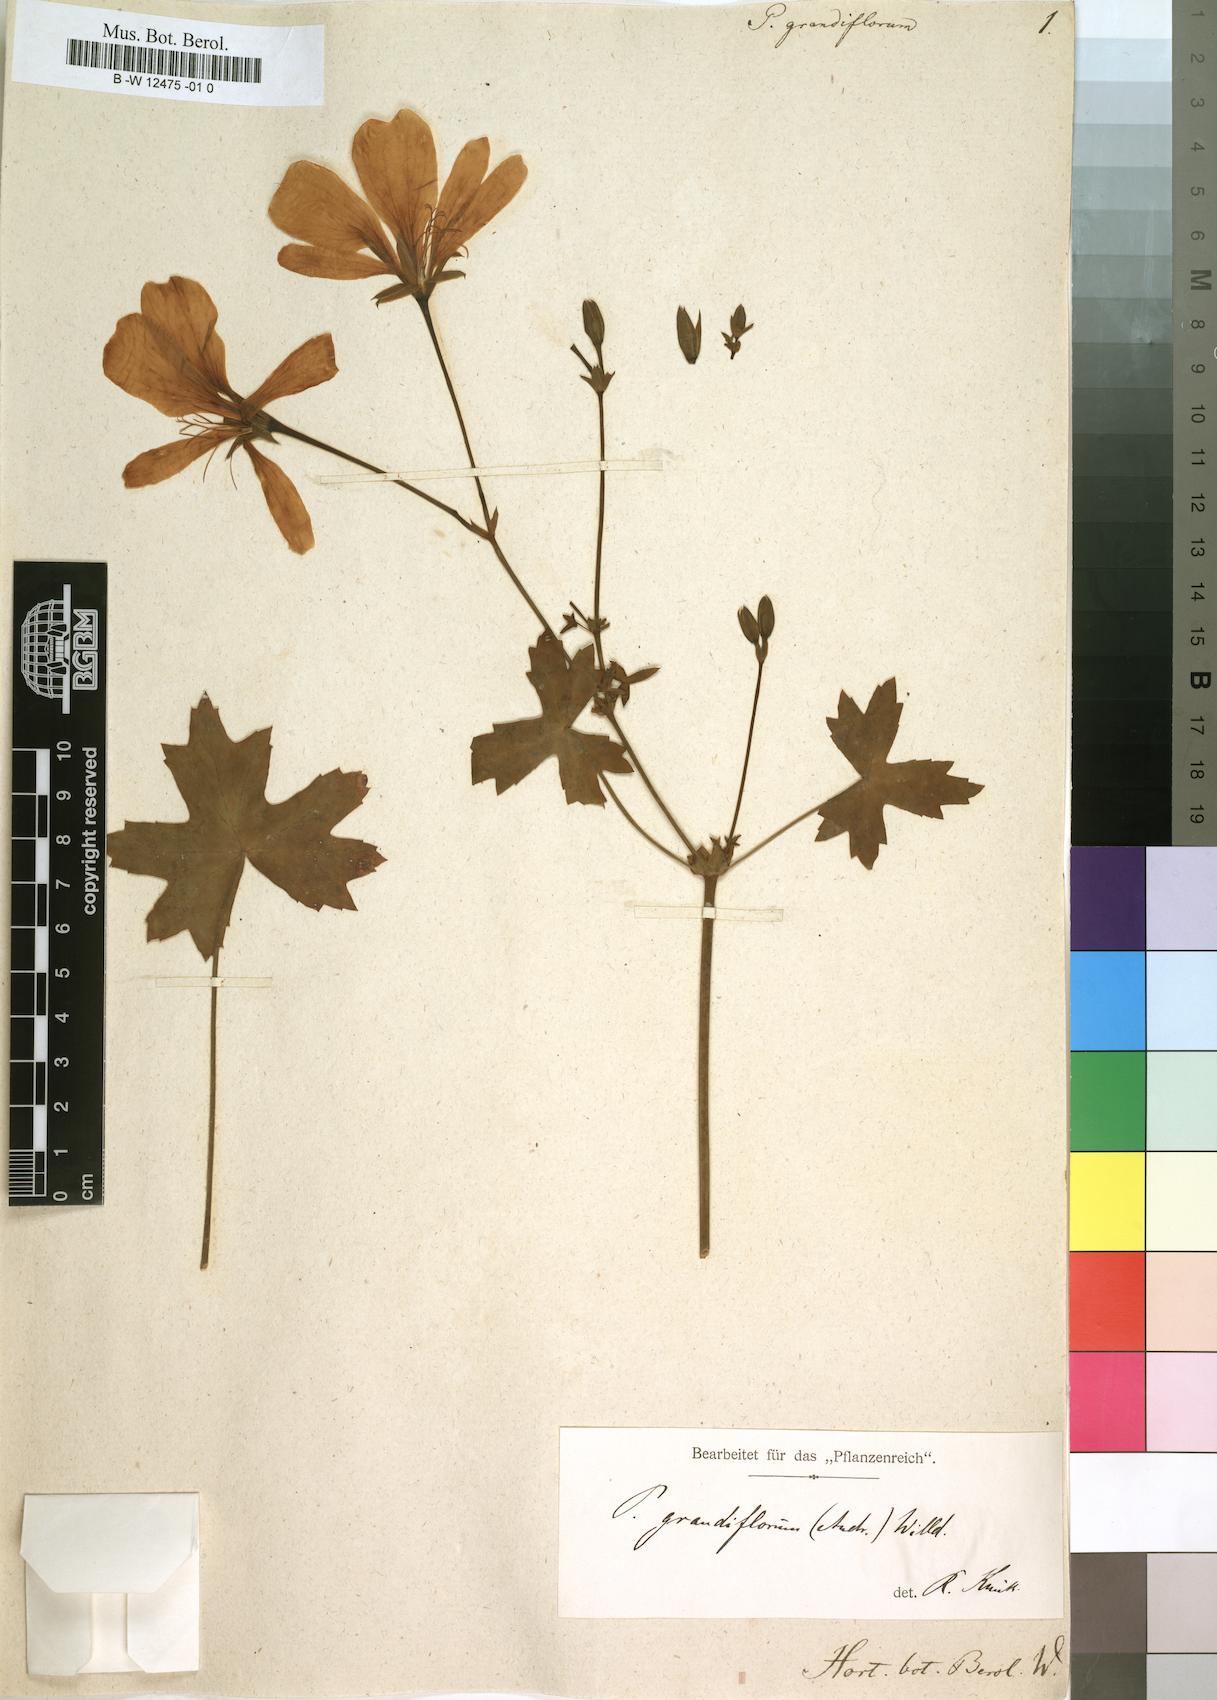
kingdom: Plantae
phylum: Tracheophyta
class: Magnoliopsida
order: Geraniales
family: Geraniaceae
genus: Pelargonium
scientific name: Pelargonium grandiflorum
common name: Large-flower pelargonium
